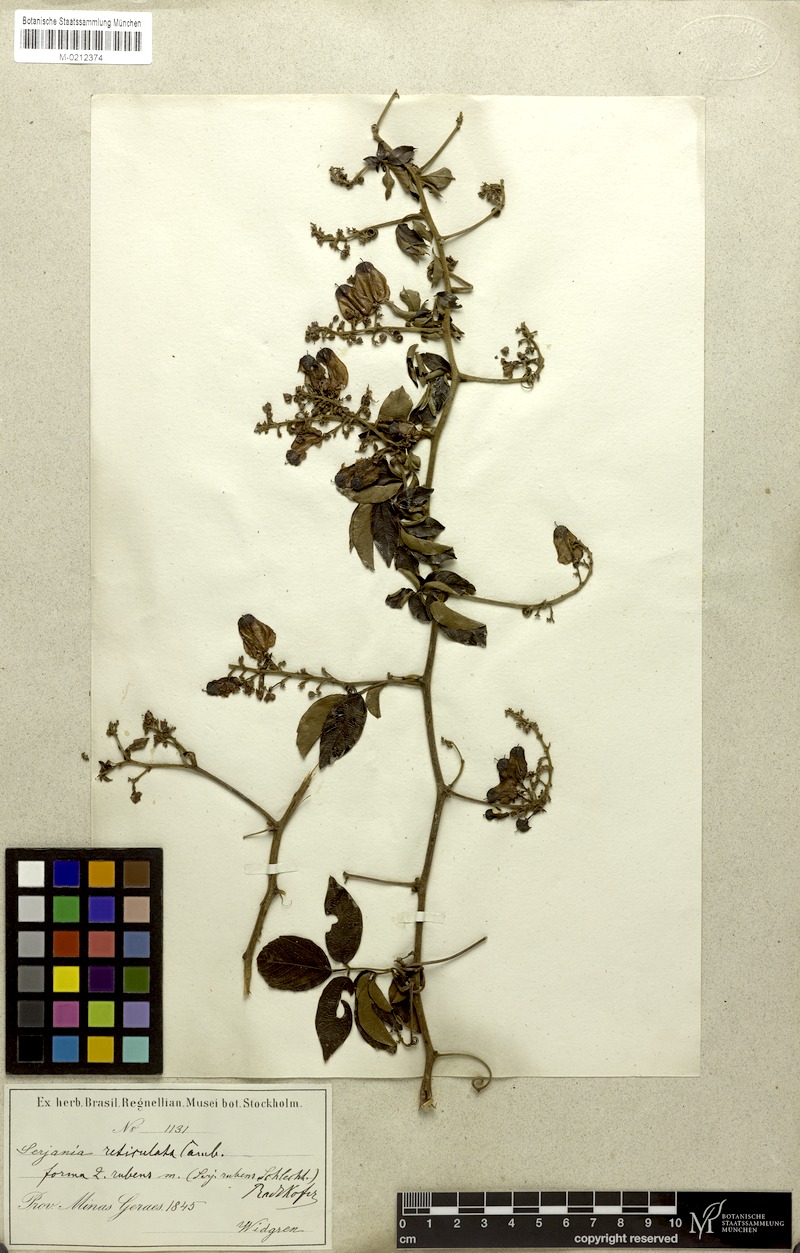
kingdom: Plantae
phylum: Tracheophyta
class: Magnoliopsida
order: Sapindales
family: Sapindaceae
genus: Serjania
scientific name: Serjania reticulata
